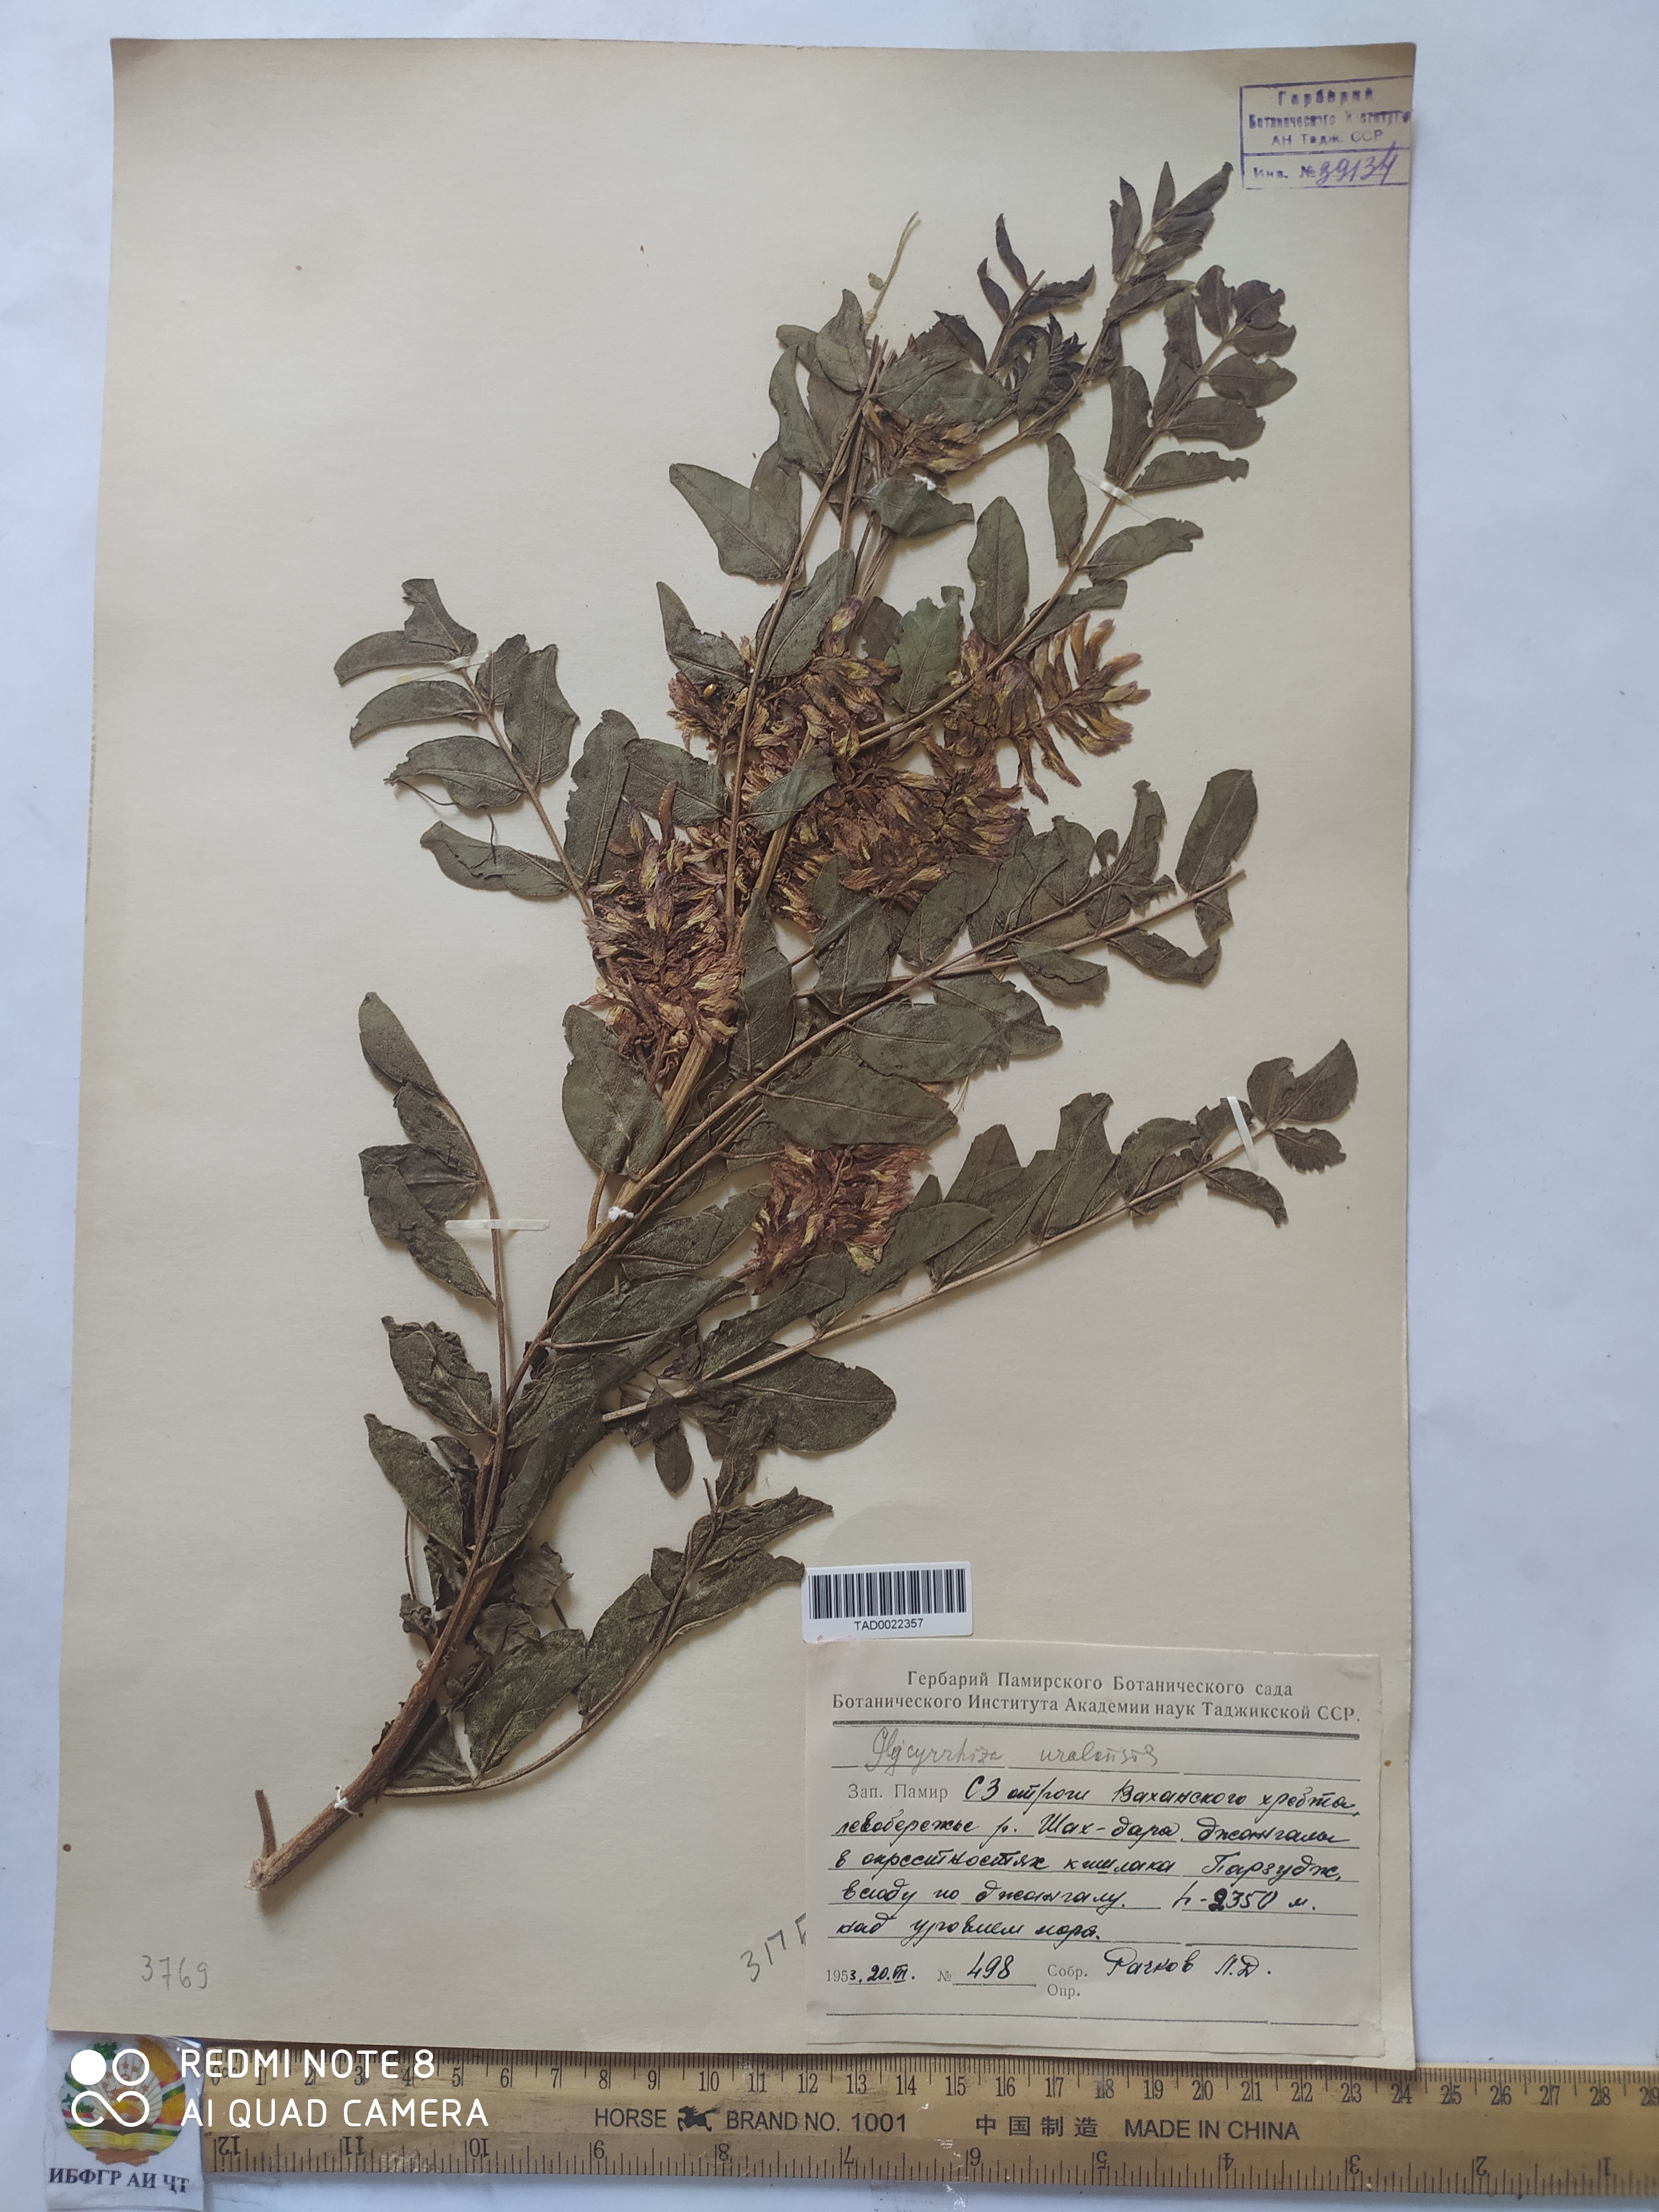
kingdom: Plantae
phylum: Tracheophyta
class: Magnoliopsida
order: Fabales
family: Fabaceae
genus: Glycyrrhiza
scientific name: Glycyrrhiza uralensis
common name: Chinese licorice
